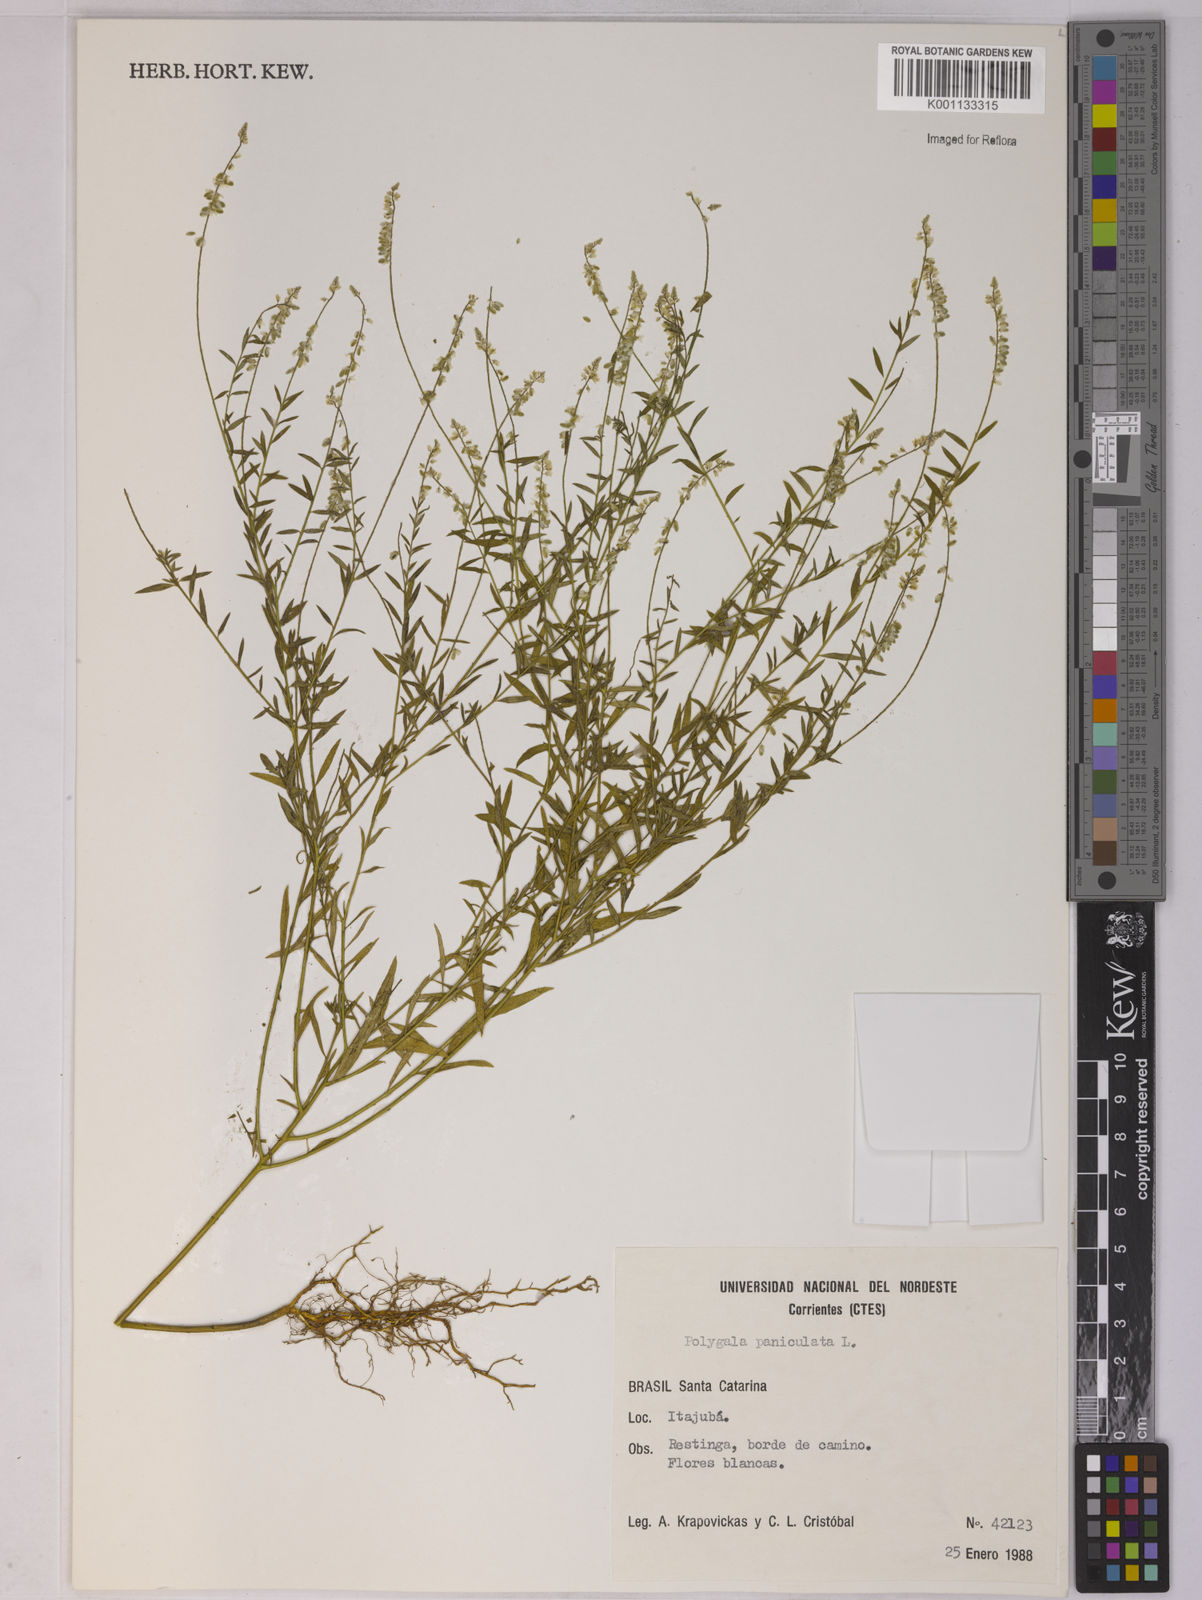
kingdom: Plantae
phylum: Tracheophyta
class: Magnoliopsida
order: Fabales
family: Polygalaceae
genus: Polygala
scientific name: Polygala paniculata
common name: Orosne
